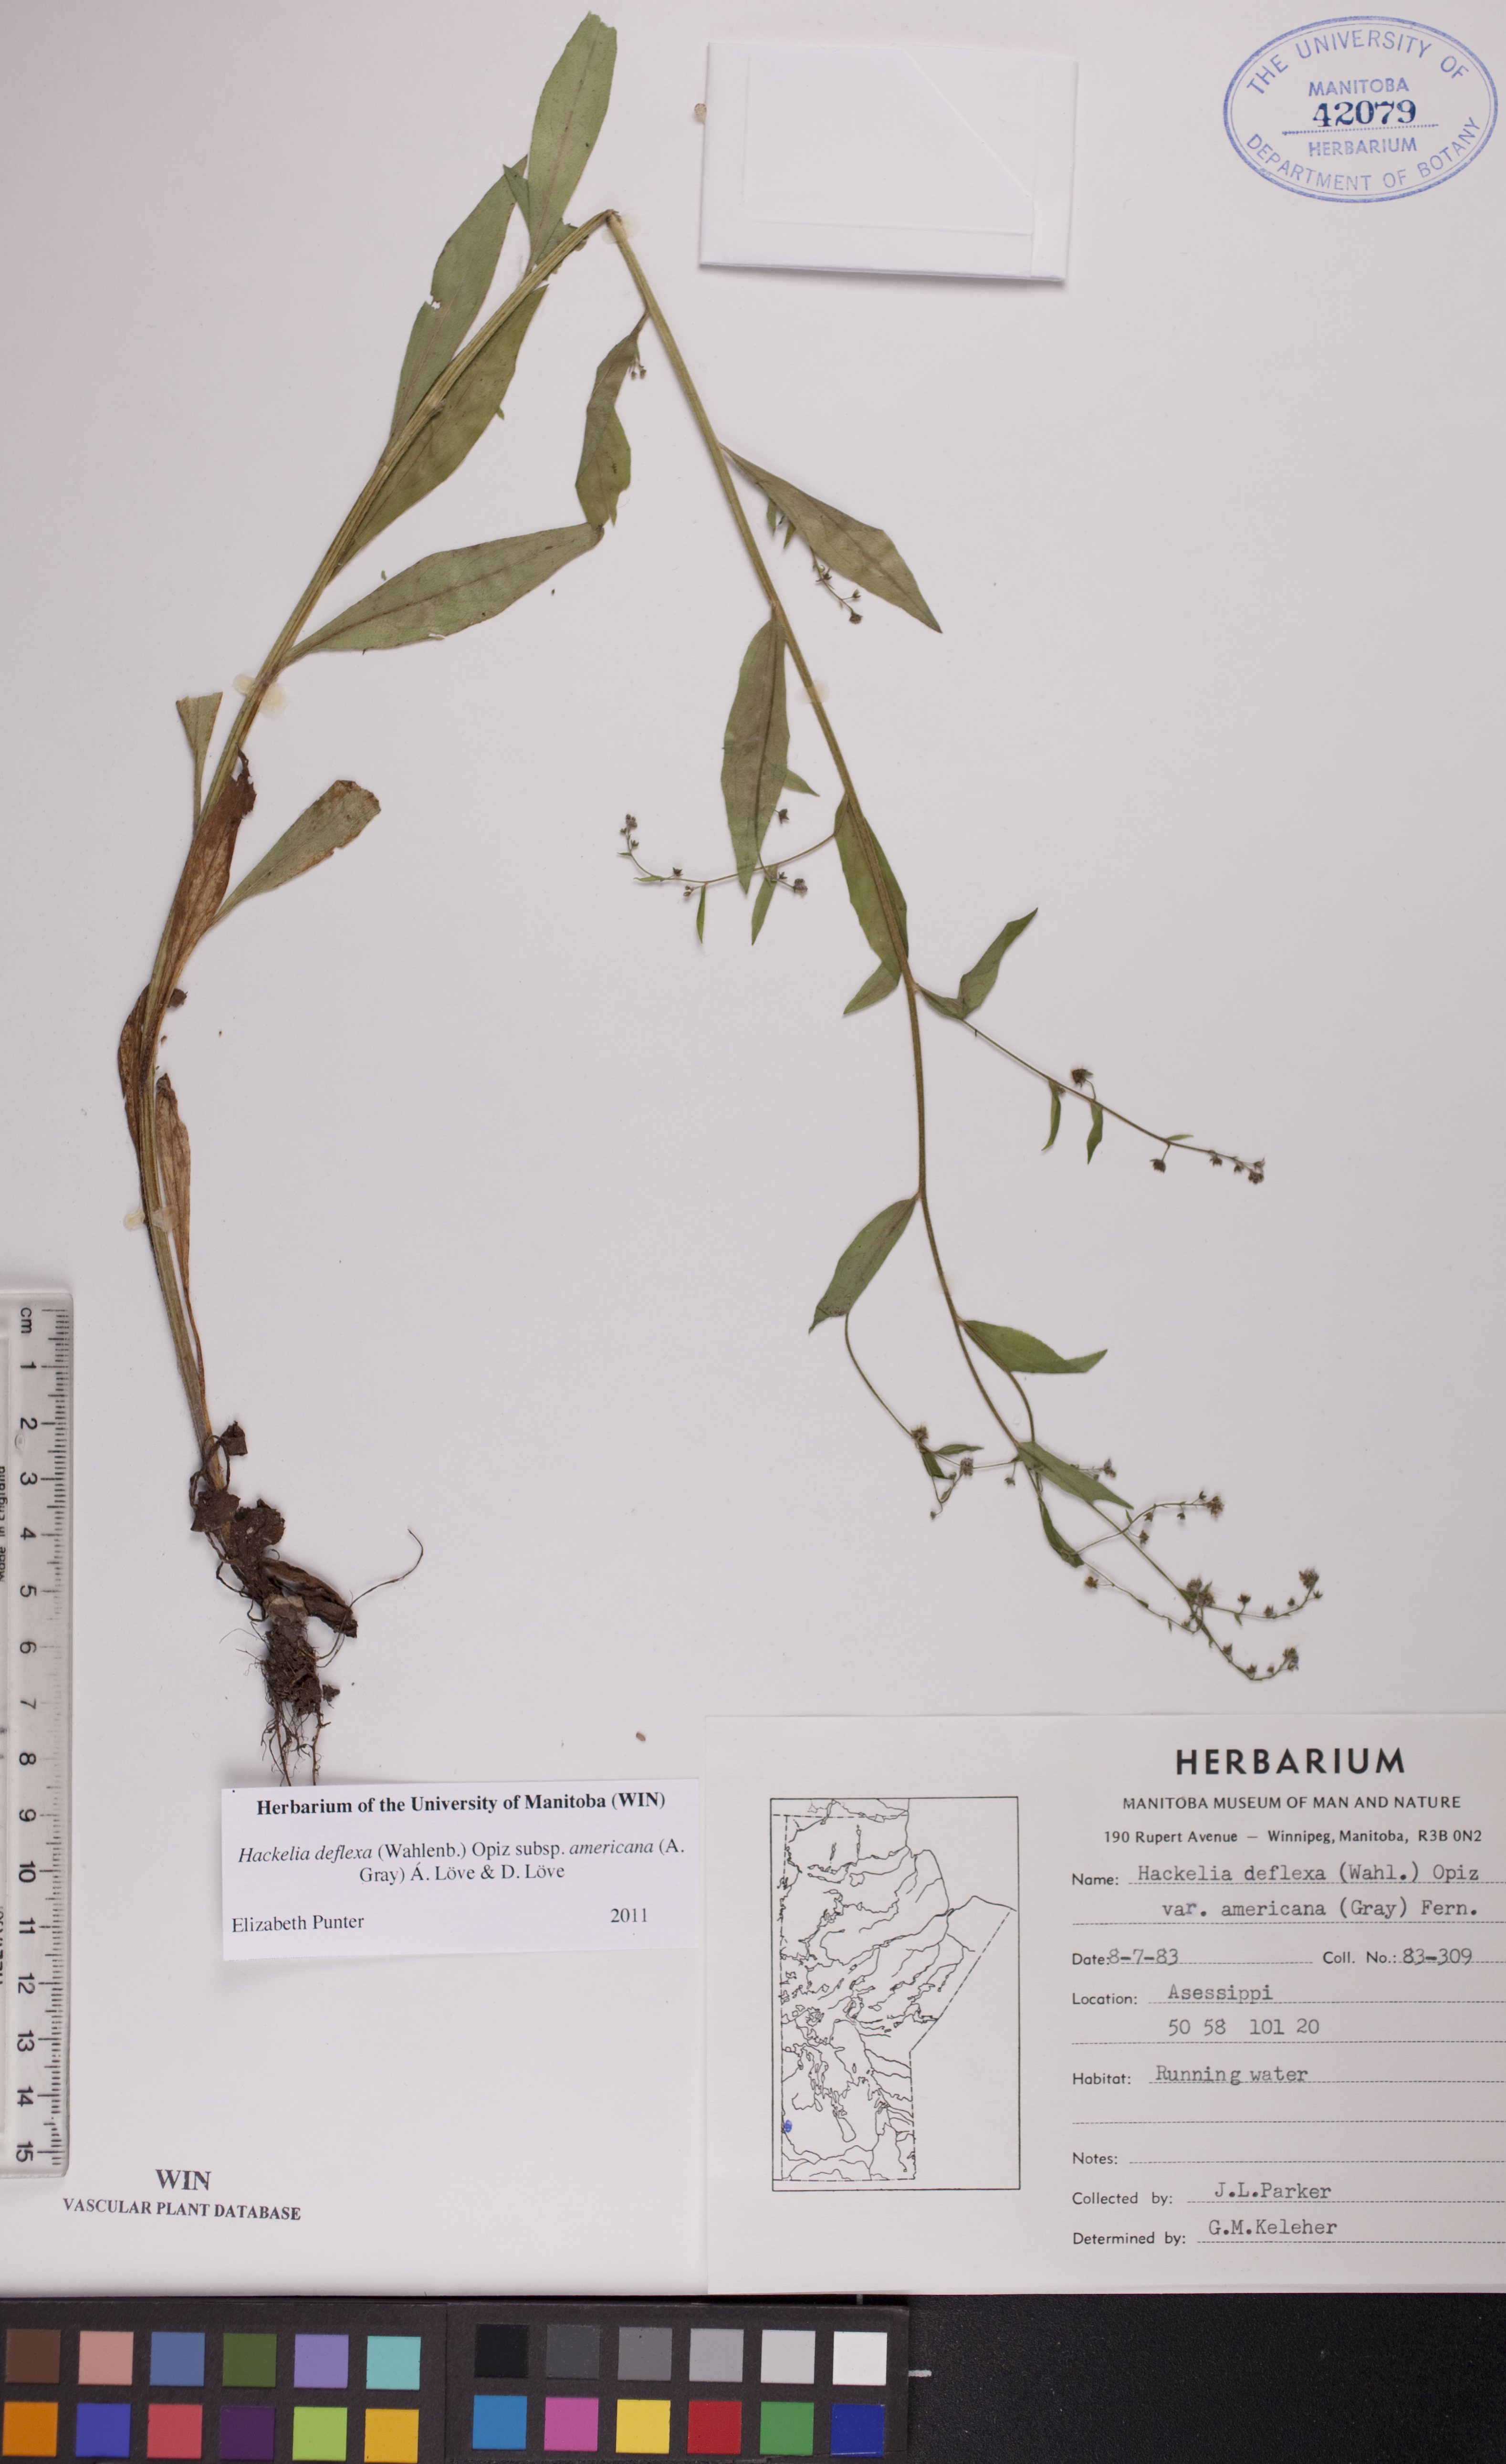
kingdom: Plantae
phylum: Tracheophyta
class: Magnoliopsida
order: Boraginales
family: Boraginaceae
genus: Hackelia
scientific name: Hackelia deflexa
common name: Nodding stickseed
